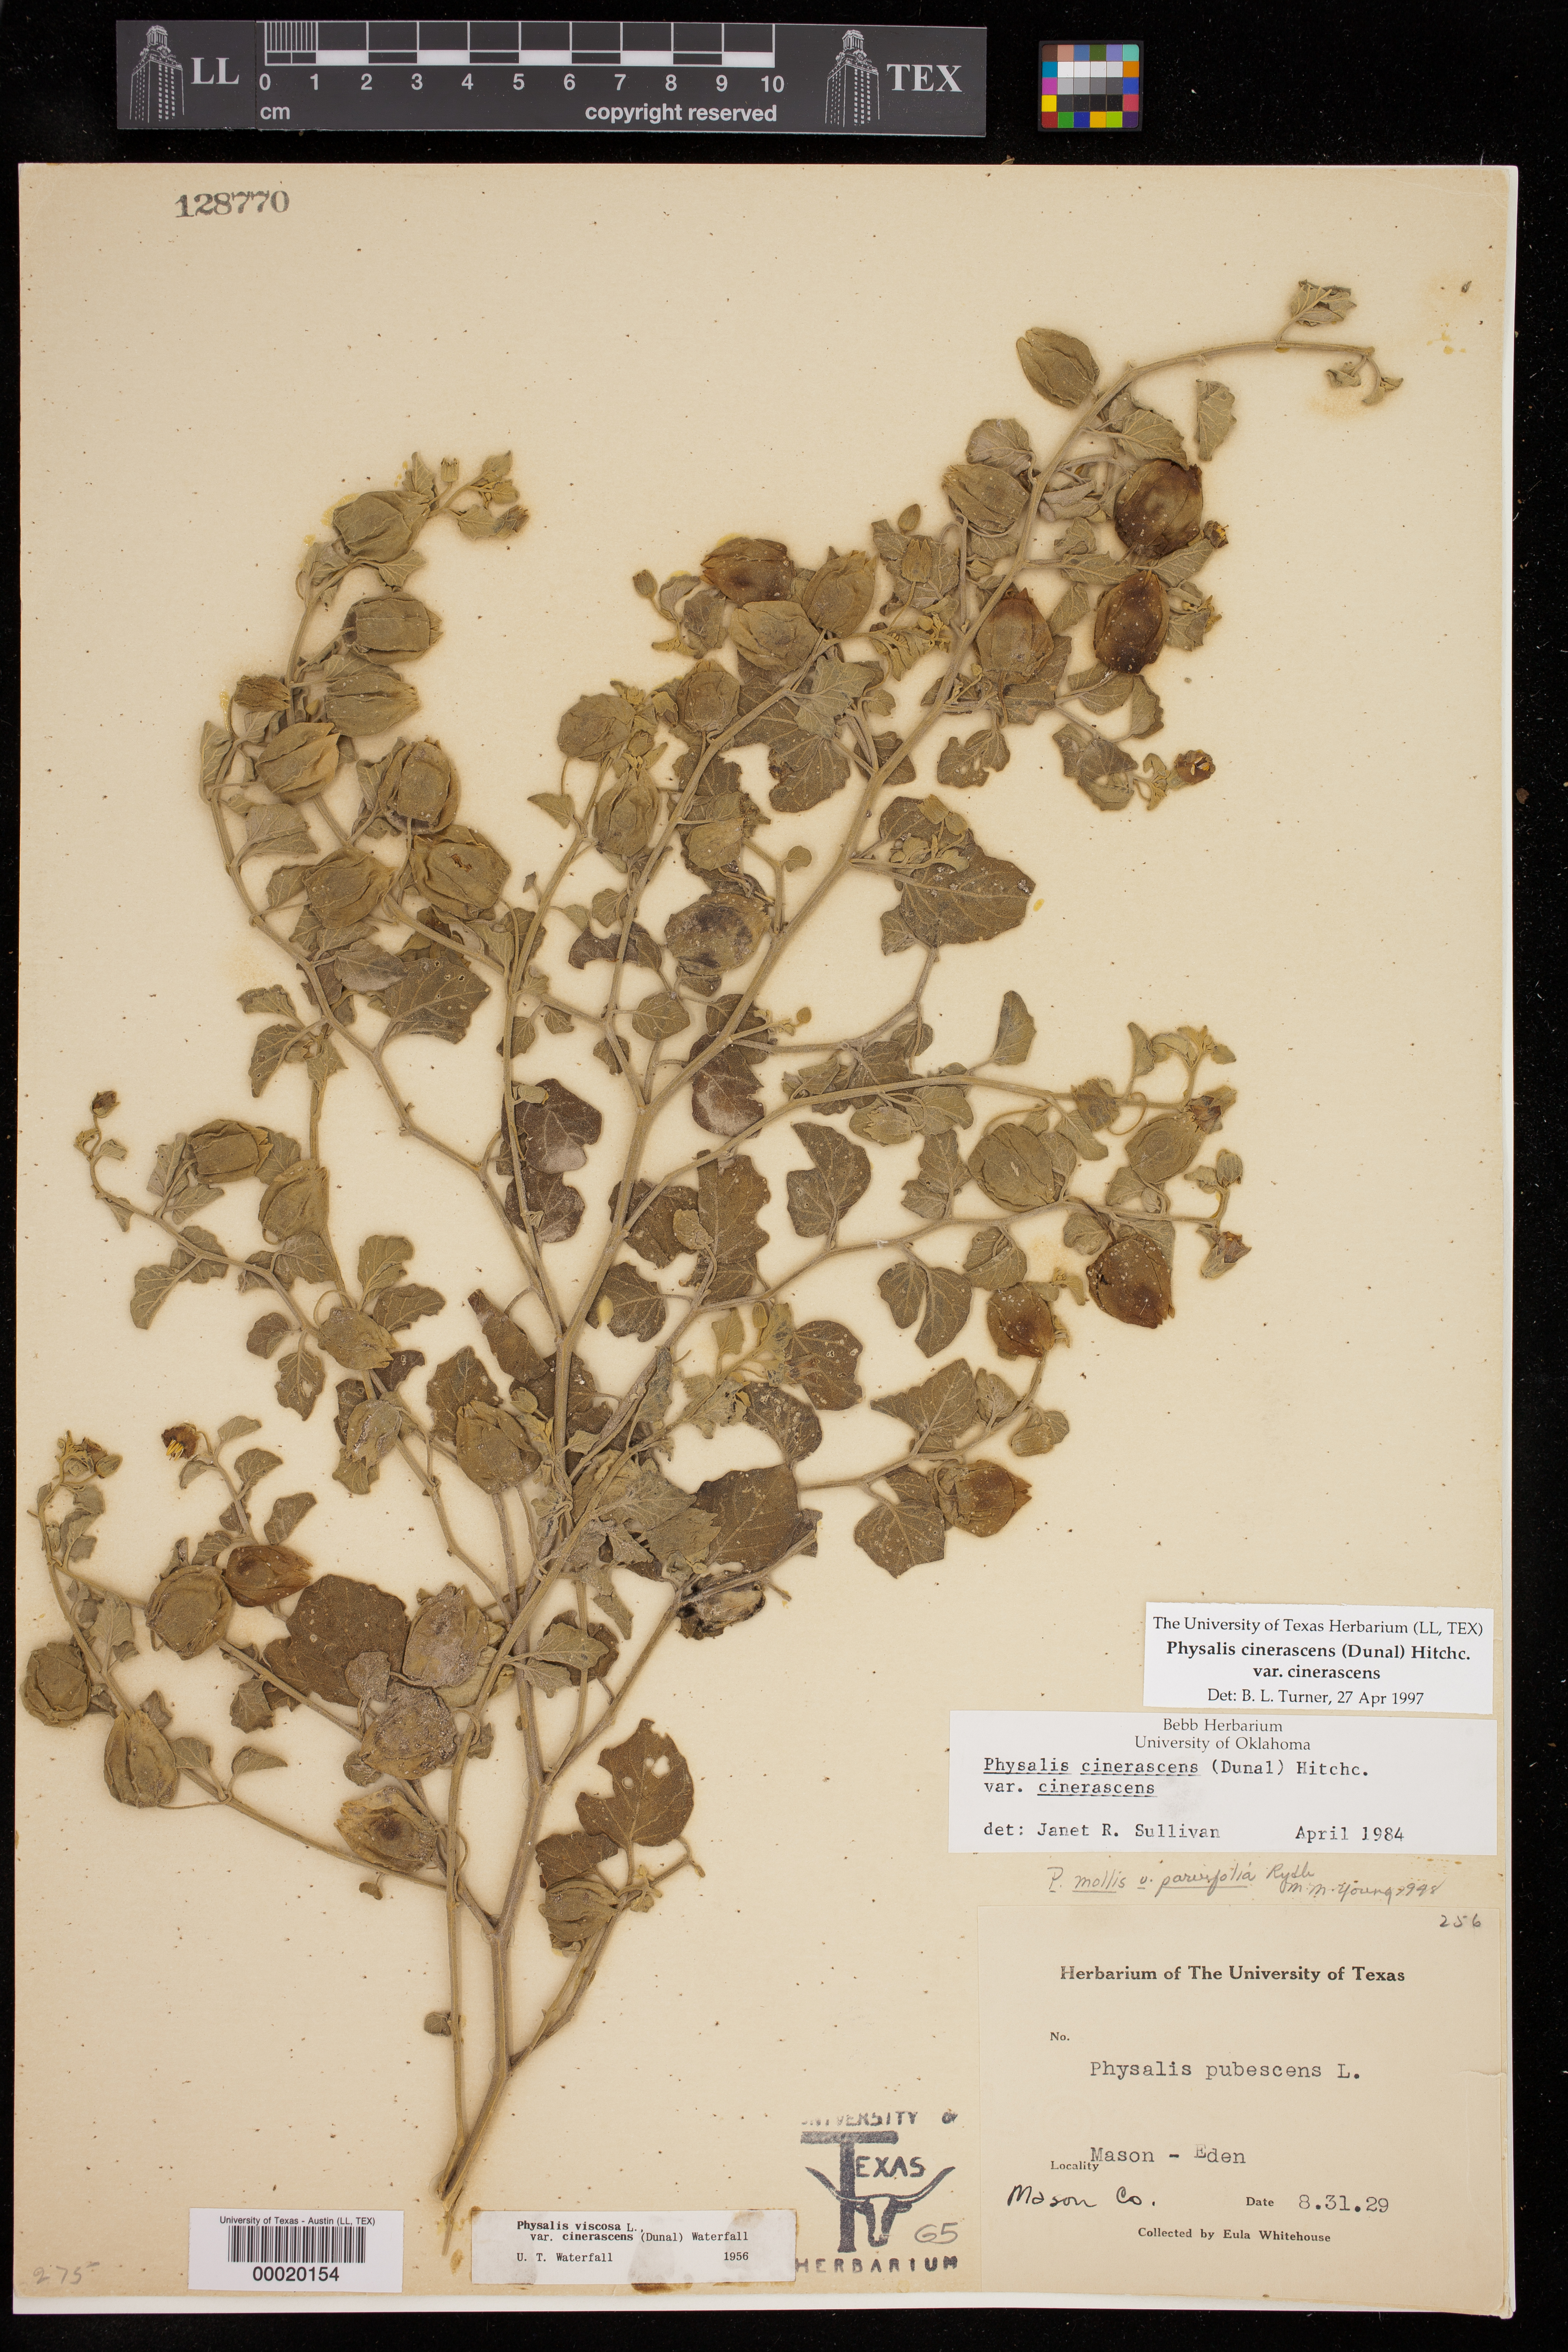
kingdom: Plantae
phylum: Tracheophyta
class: Magnoliopsida
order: Solanales
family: Solanaceae
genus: Physalis
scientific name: Physalis cinerascens
